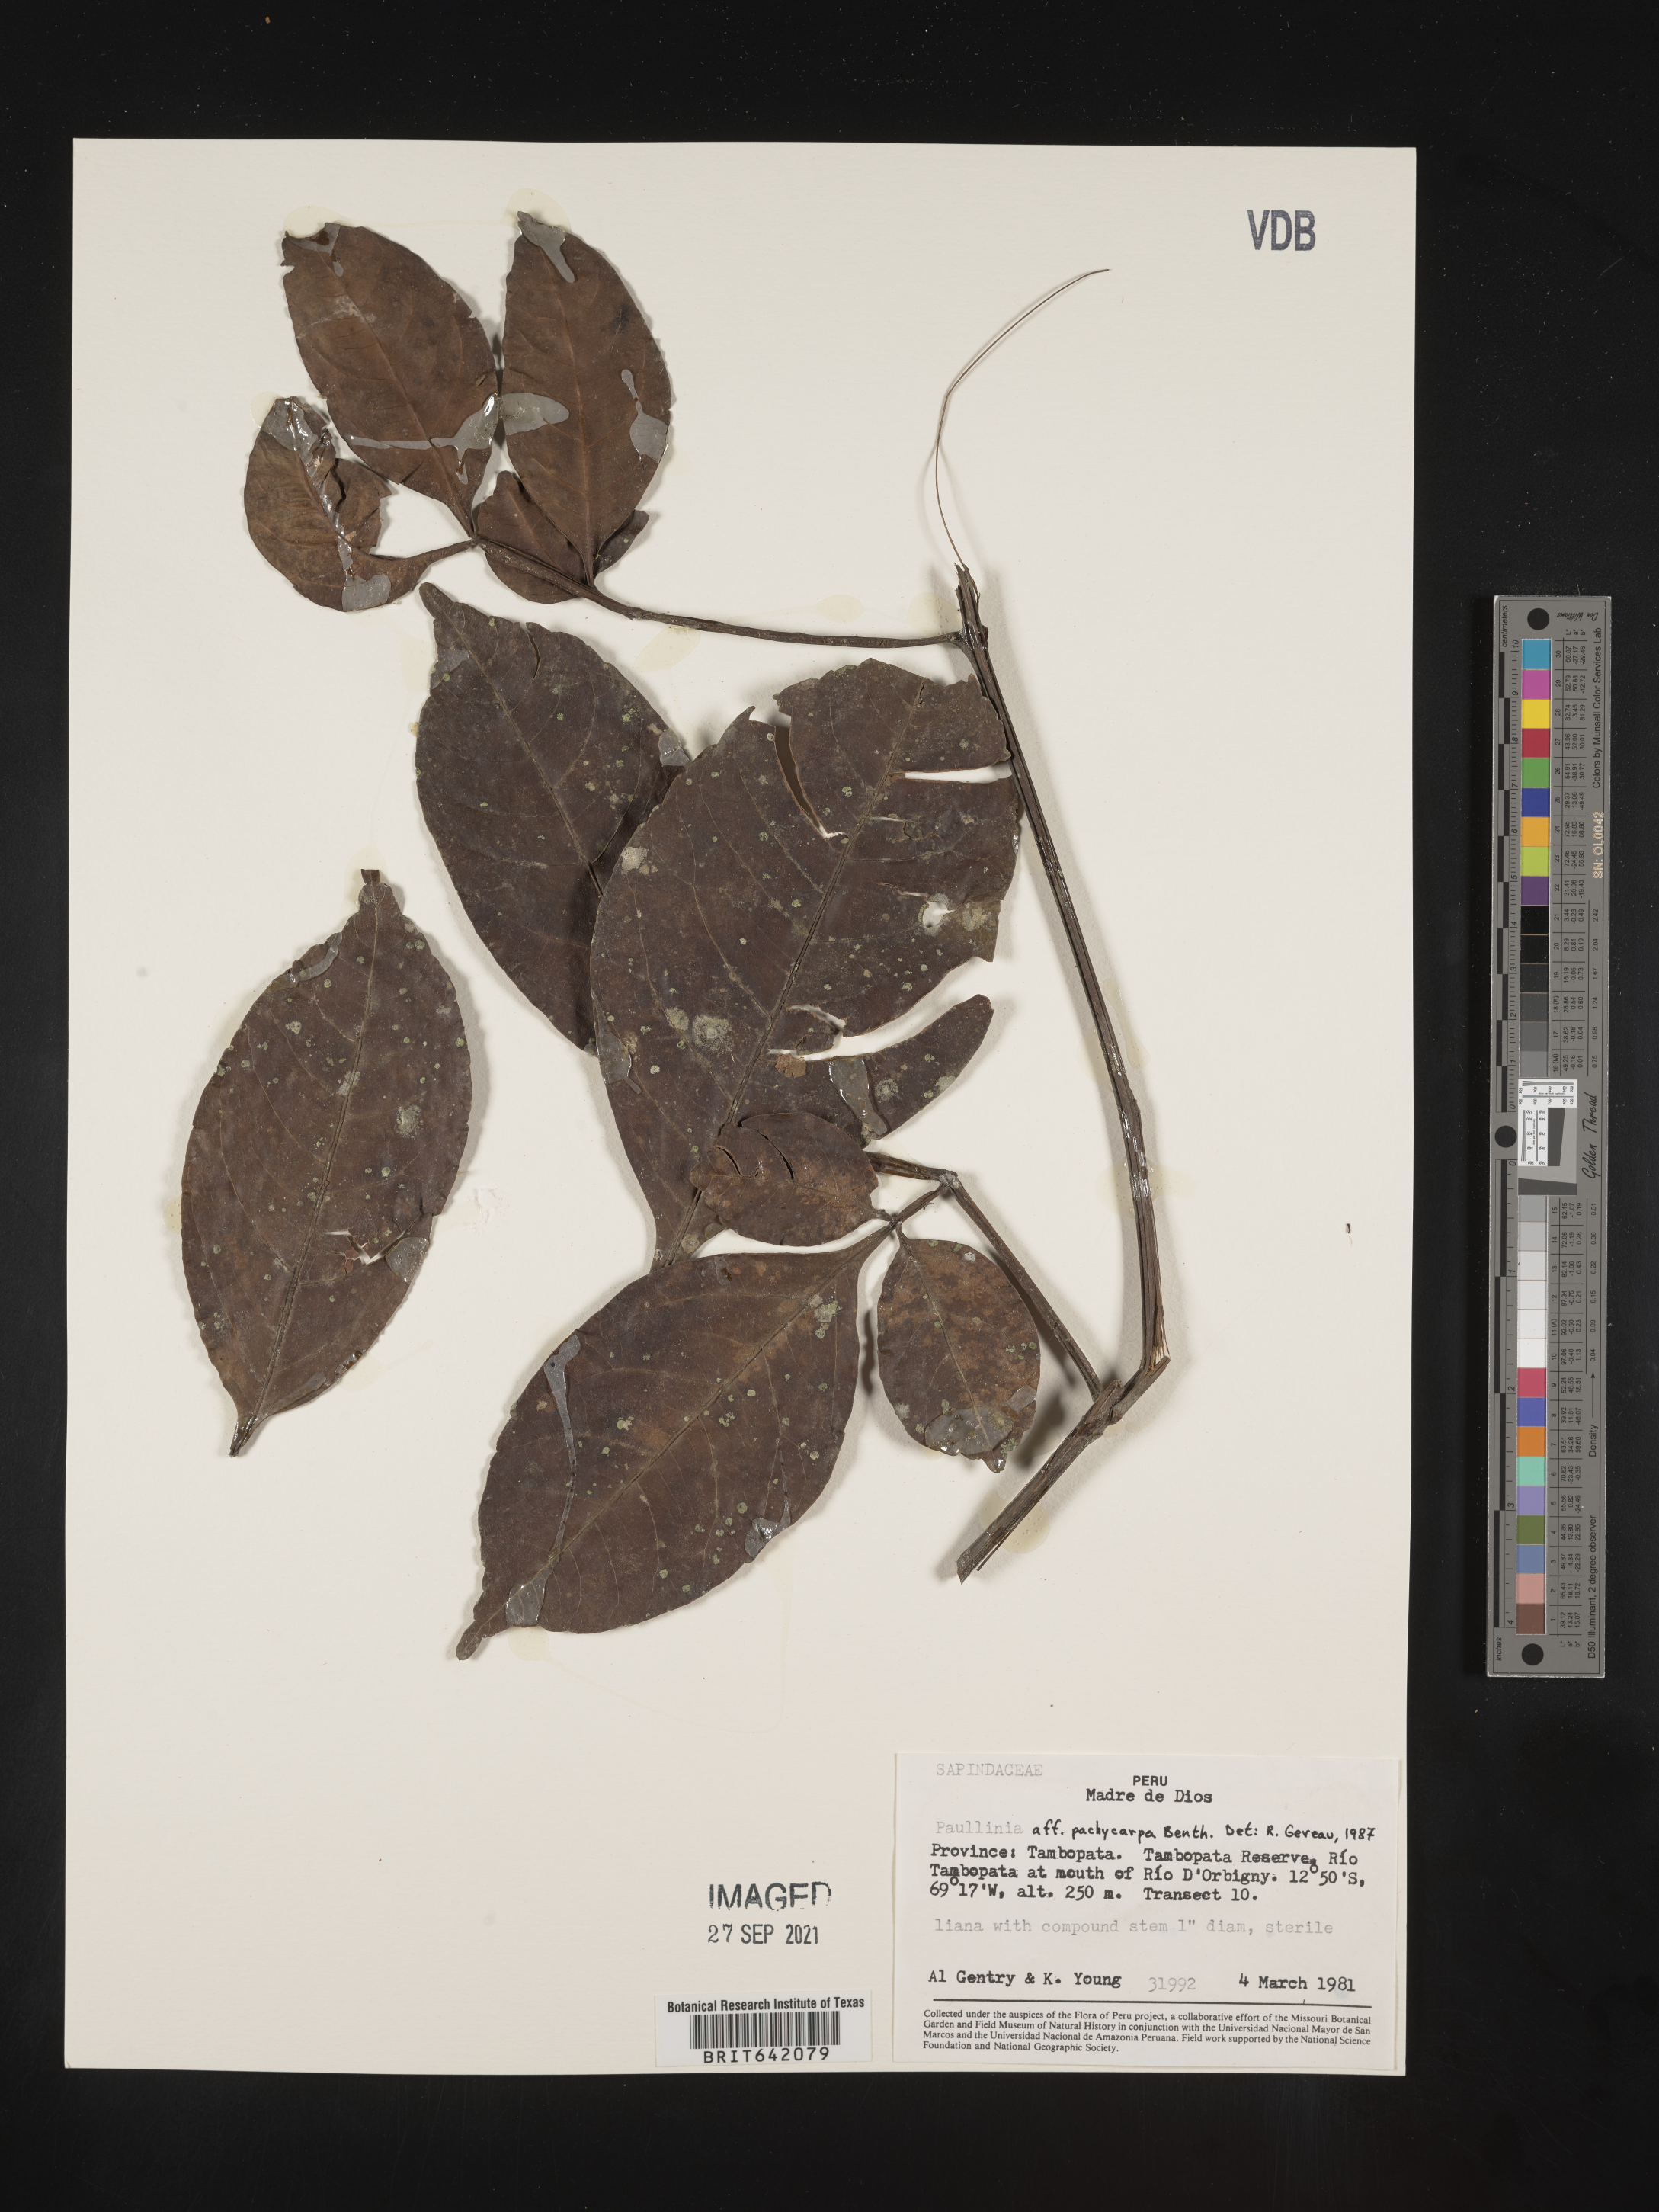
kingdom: Plantae
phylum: Tracheophyta
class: Magnoliopsida
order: Sapindales
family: Sapindaceae
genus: Paullinia
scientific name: Paullinia
